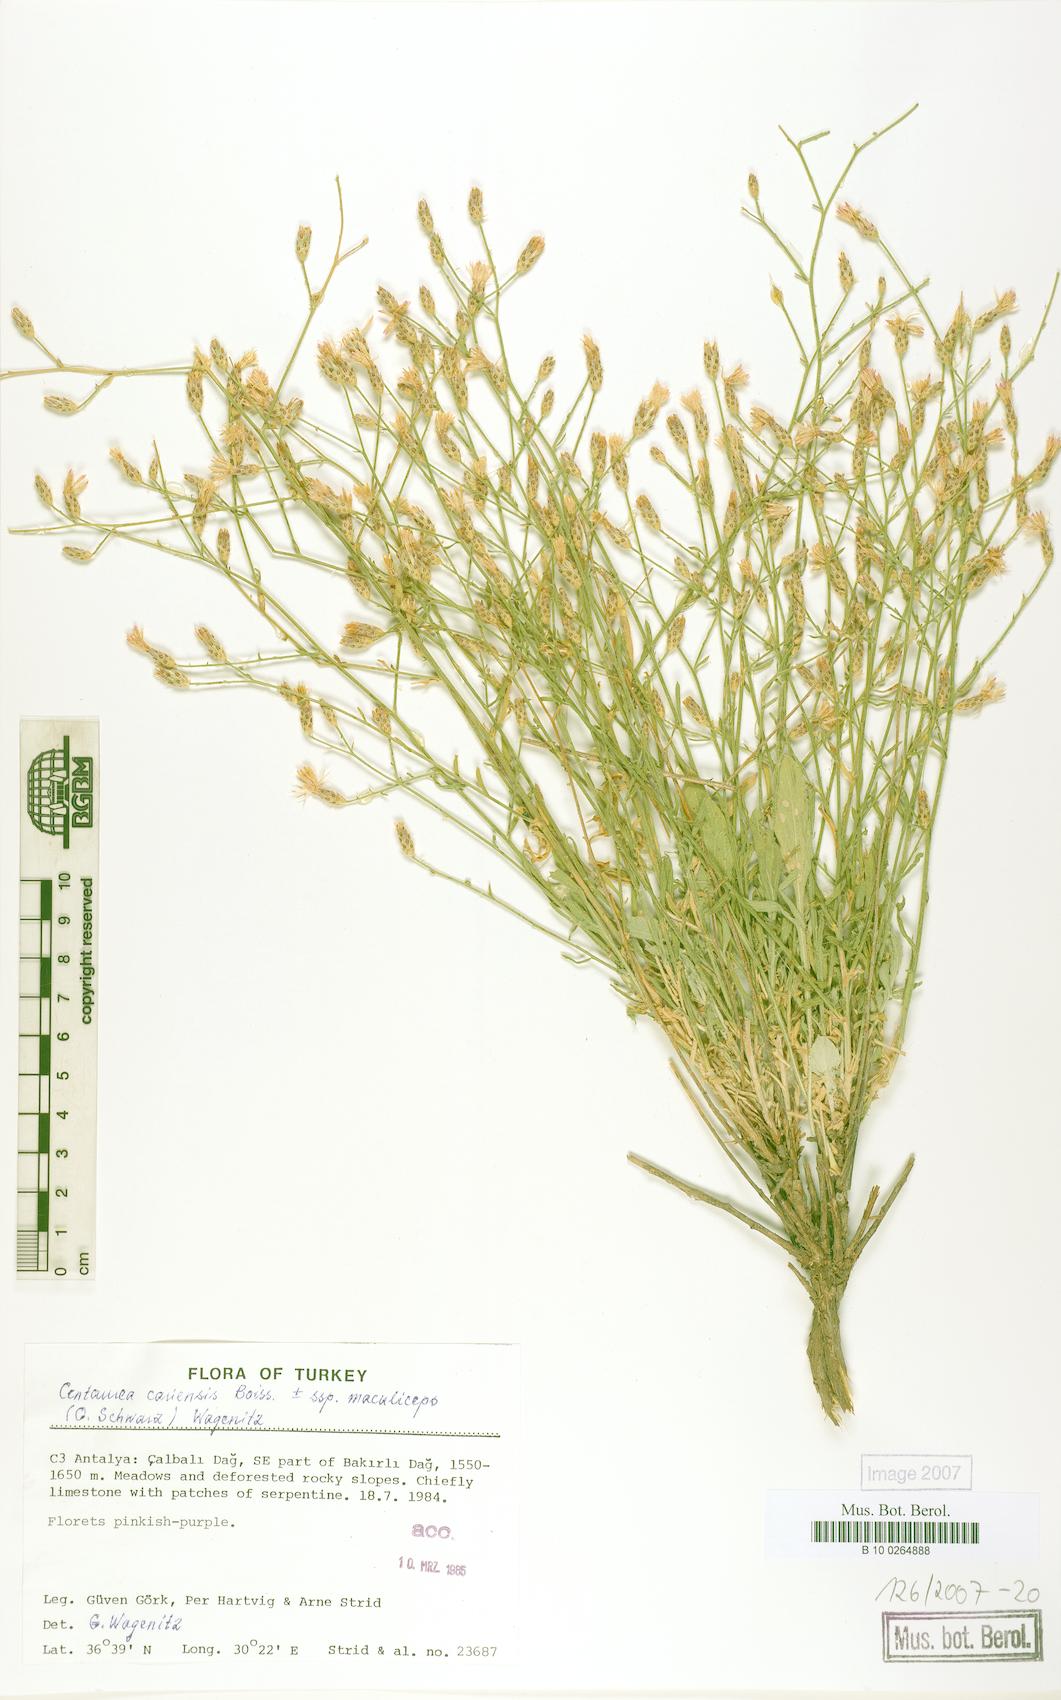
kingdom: Plantae
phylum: Tracheophyta
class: Magnoliopsida
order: Asterales
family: Asteraceae
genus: Centaurea
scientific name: Centaurea cariensis
